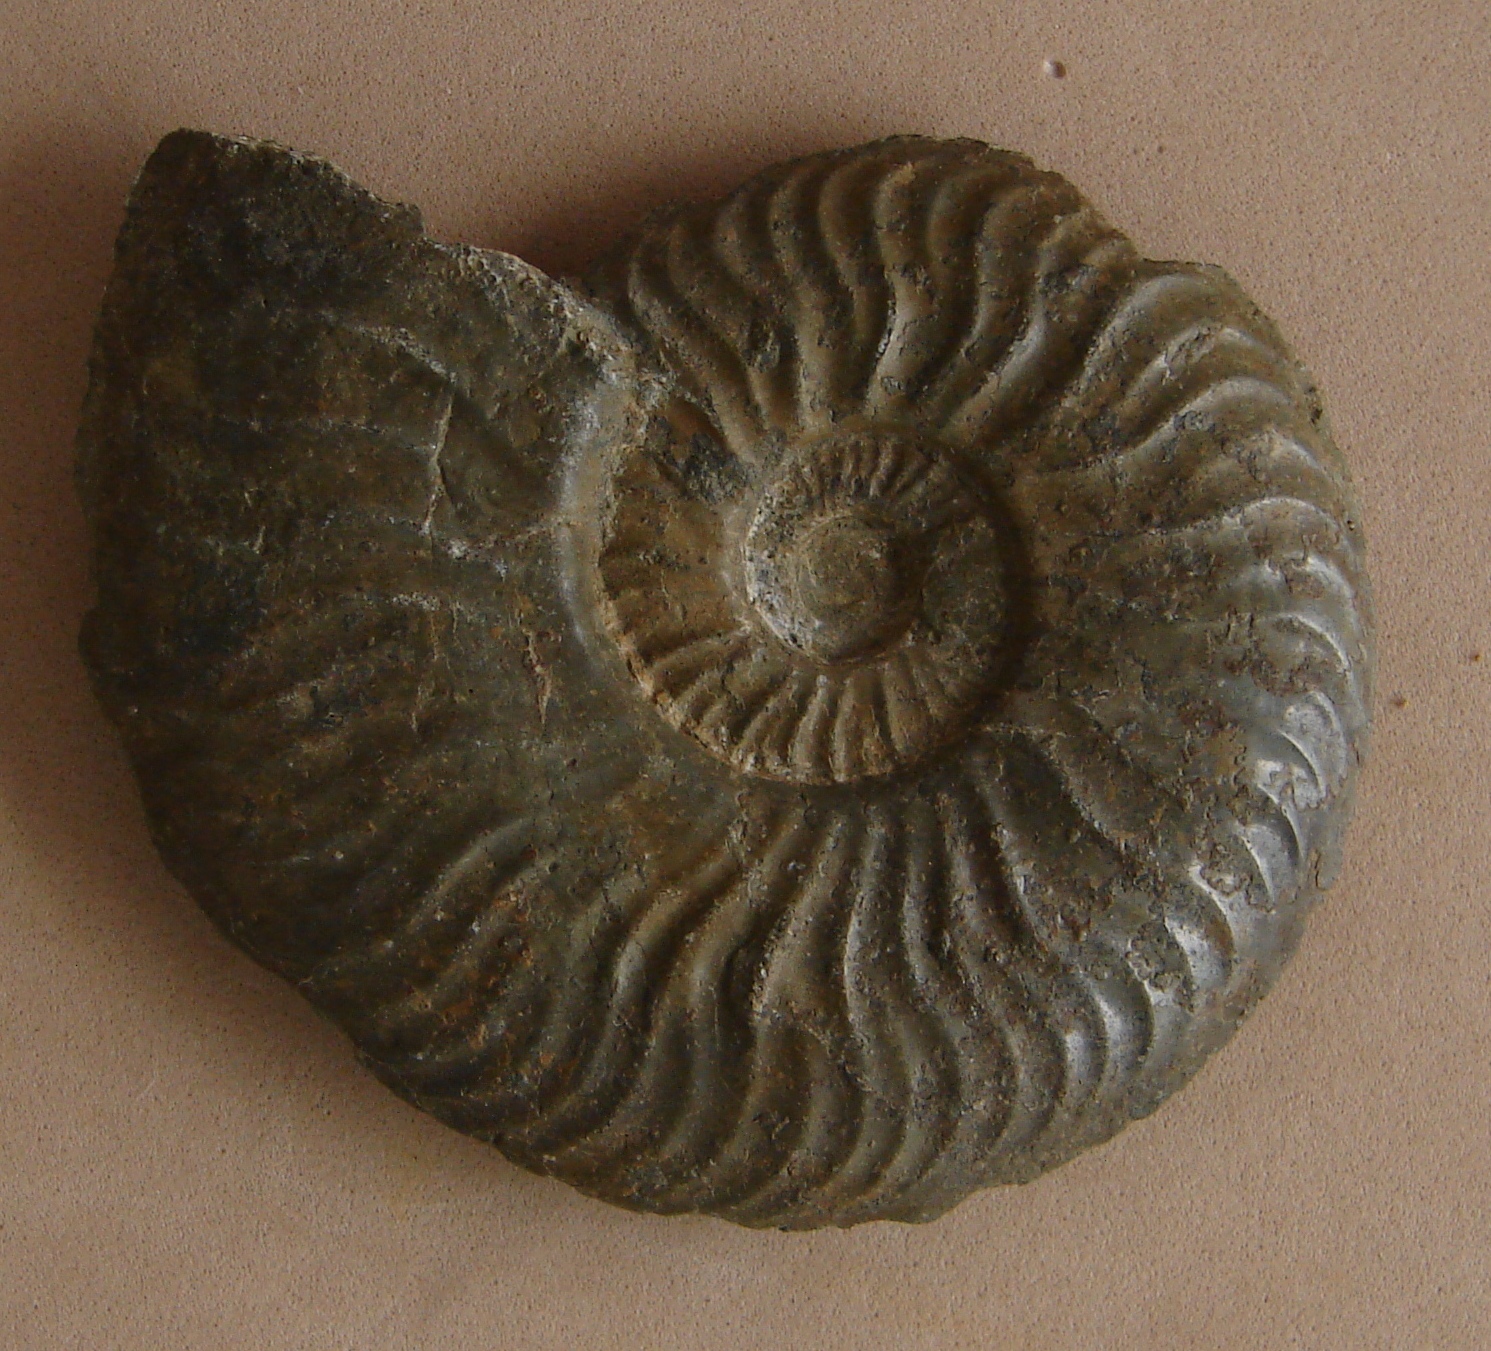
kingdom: Animalia
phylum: Mollusca
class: Cephalopoda
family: Hildoceratidae
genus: Pleydellia
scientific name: Pleydellia aalensis
